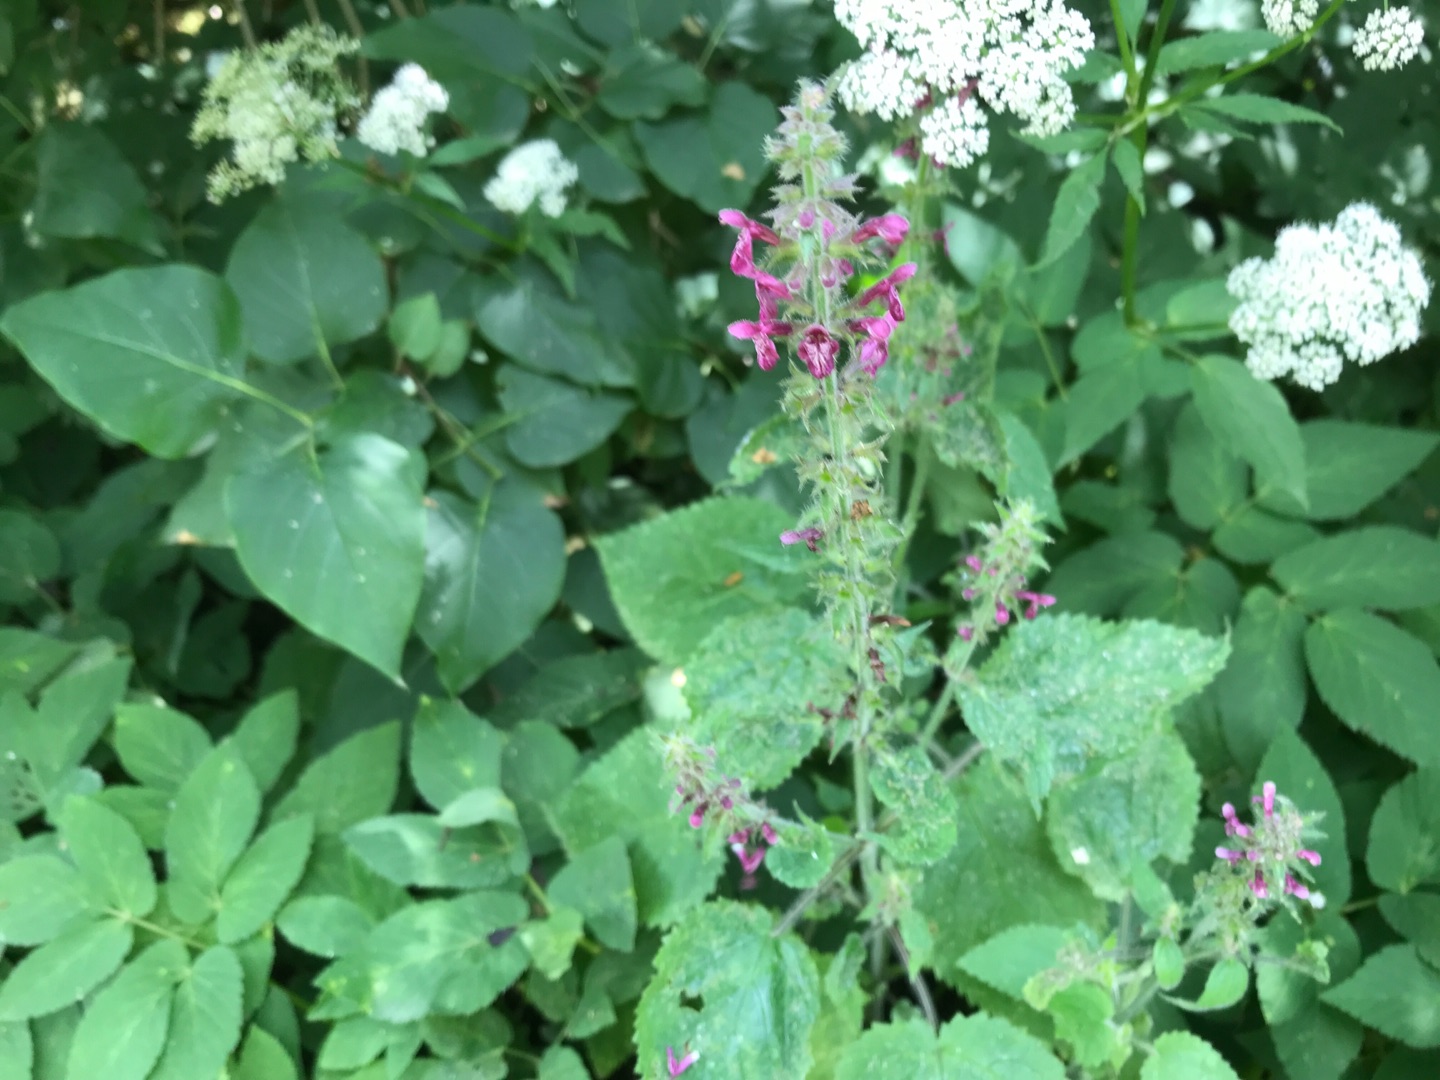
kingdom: Plantae
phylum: Tracheophyta
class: Magnoliopsida
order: Lamiales
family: Lamiaceae
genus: Stachys
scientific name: Stachys sylvatica
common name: Skov-galtetand
